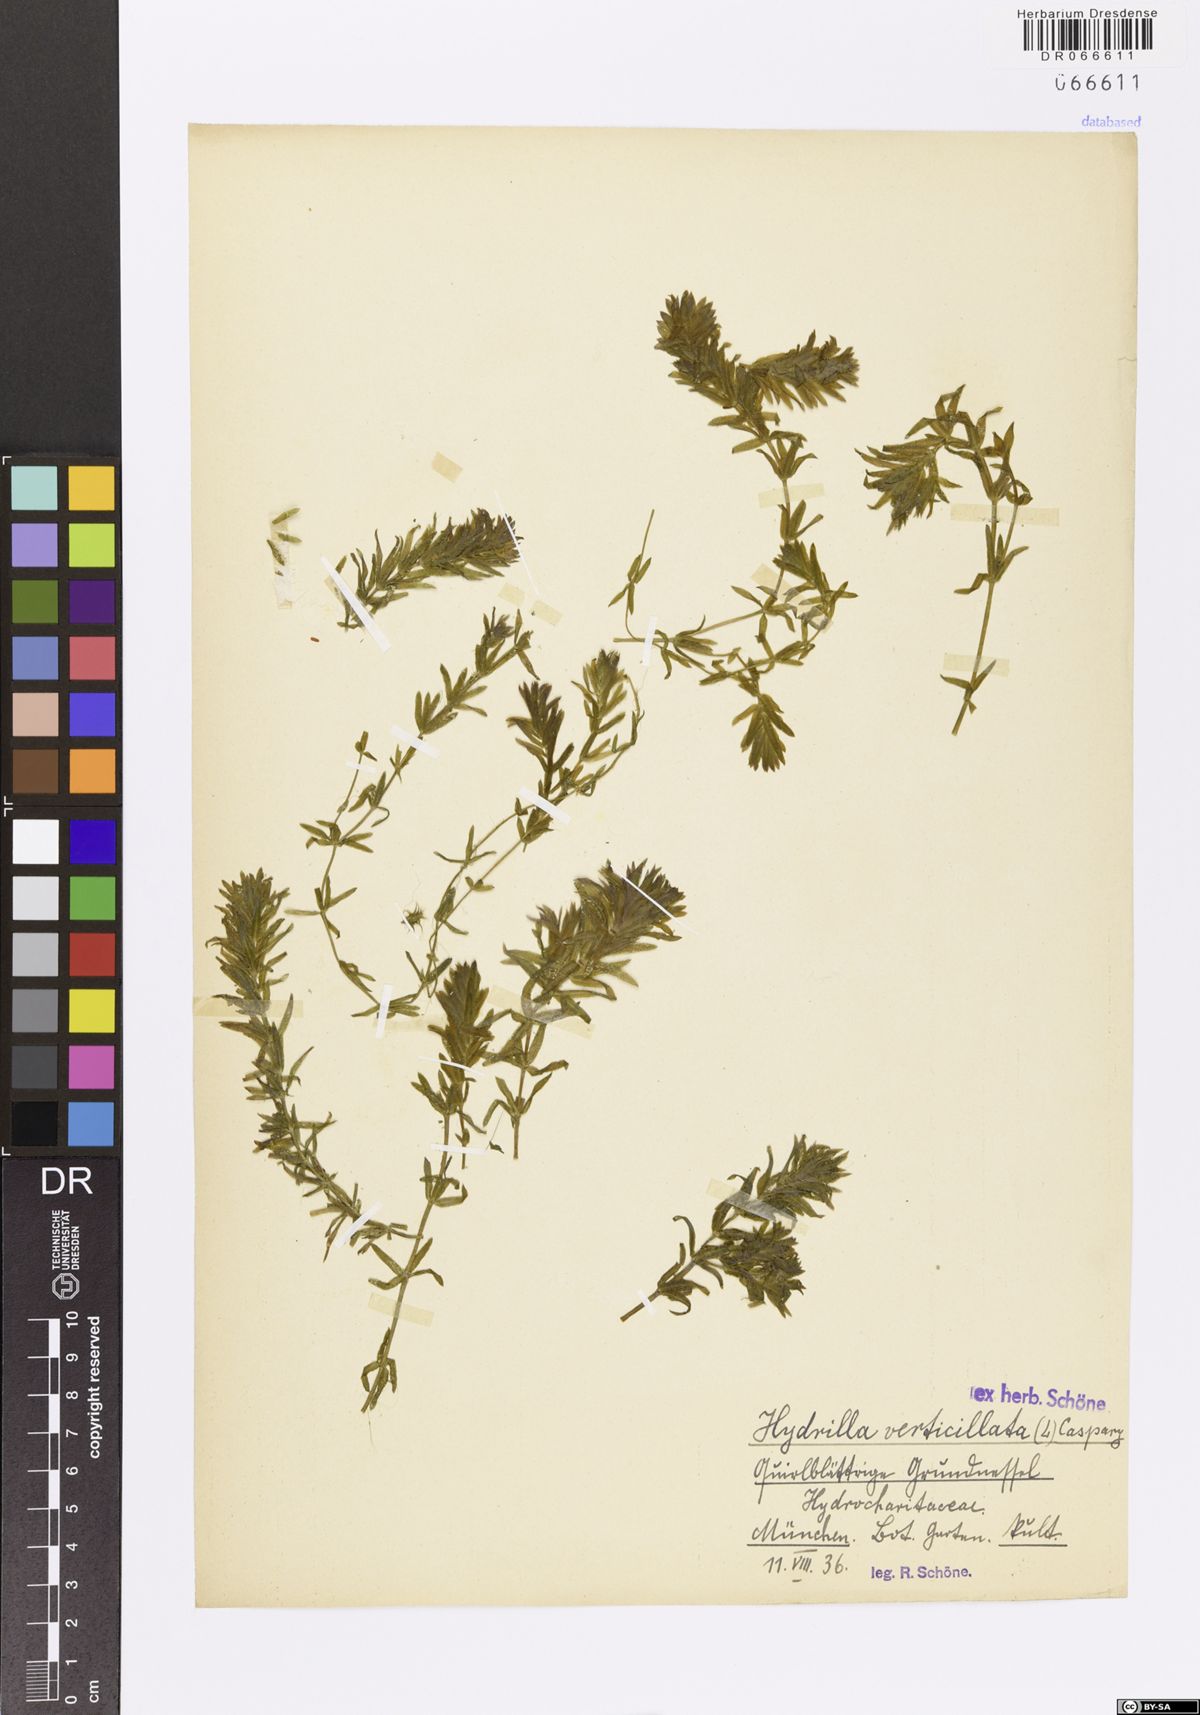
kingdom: Plantae
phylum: Tracheophyta
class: Liliopsida
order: Alismatales
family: Hydrocharitaceae
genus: Hydrilla
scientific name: Hydrilla verticillata
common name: Florida-elodea
